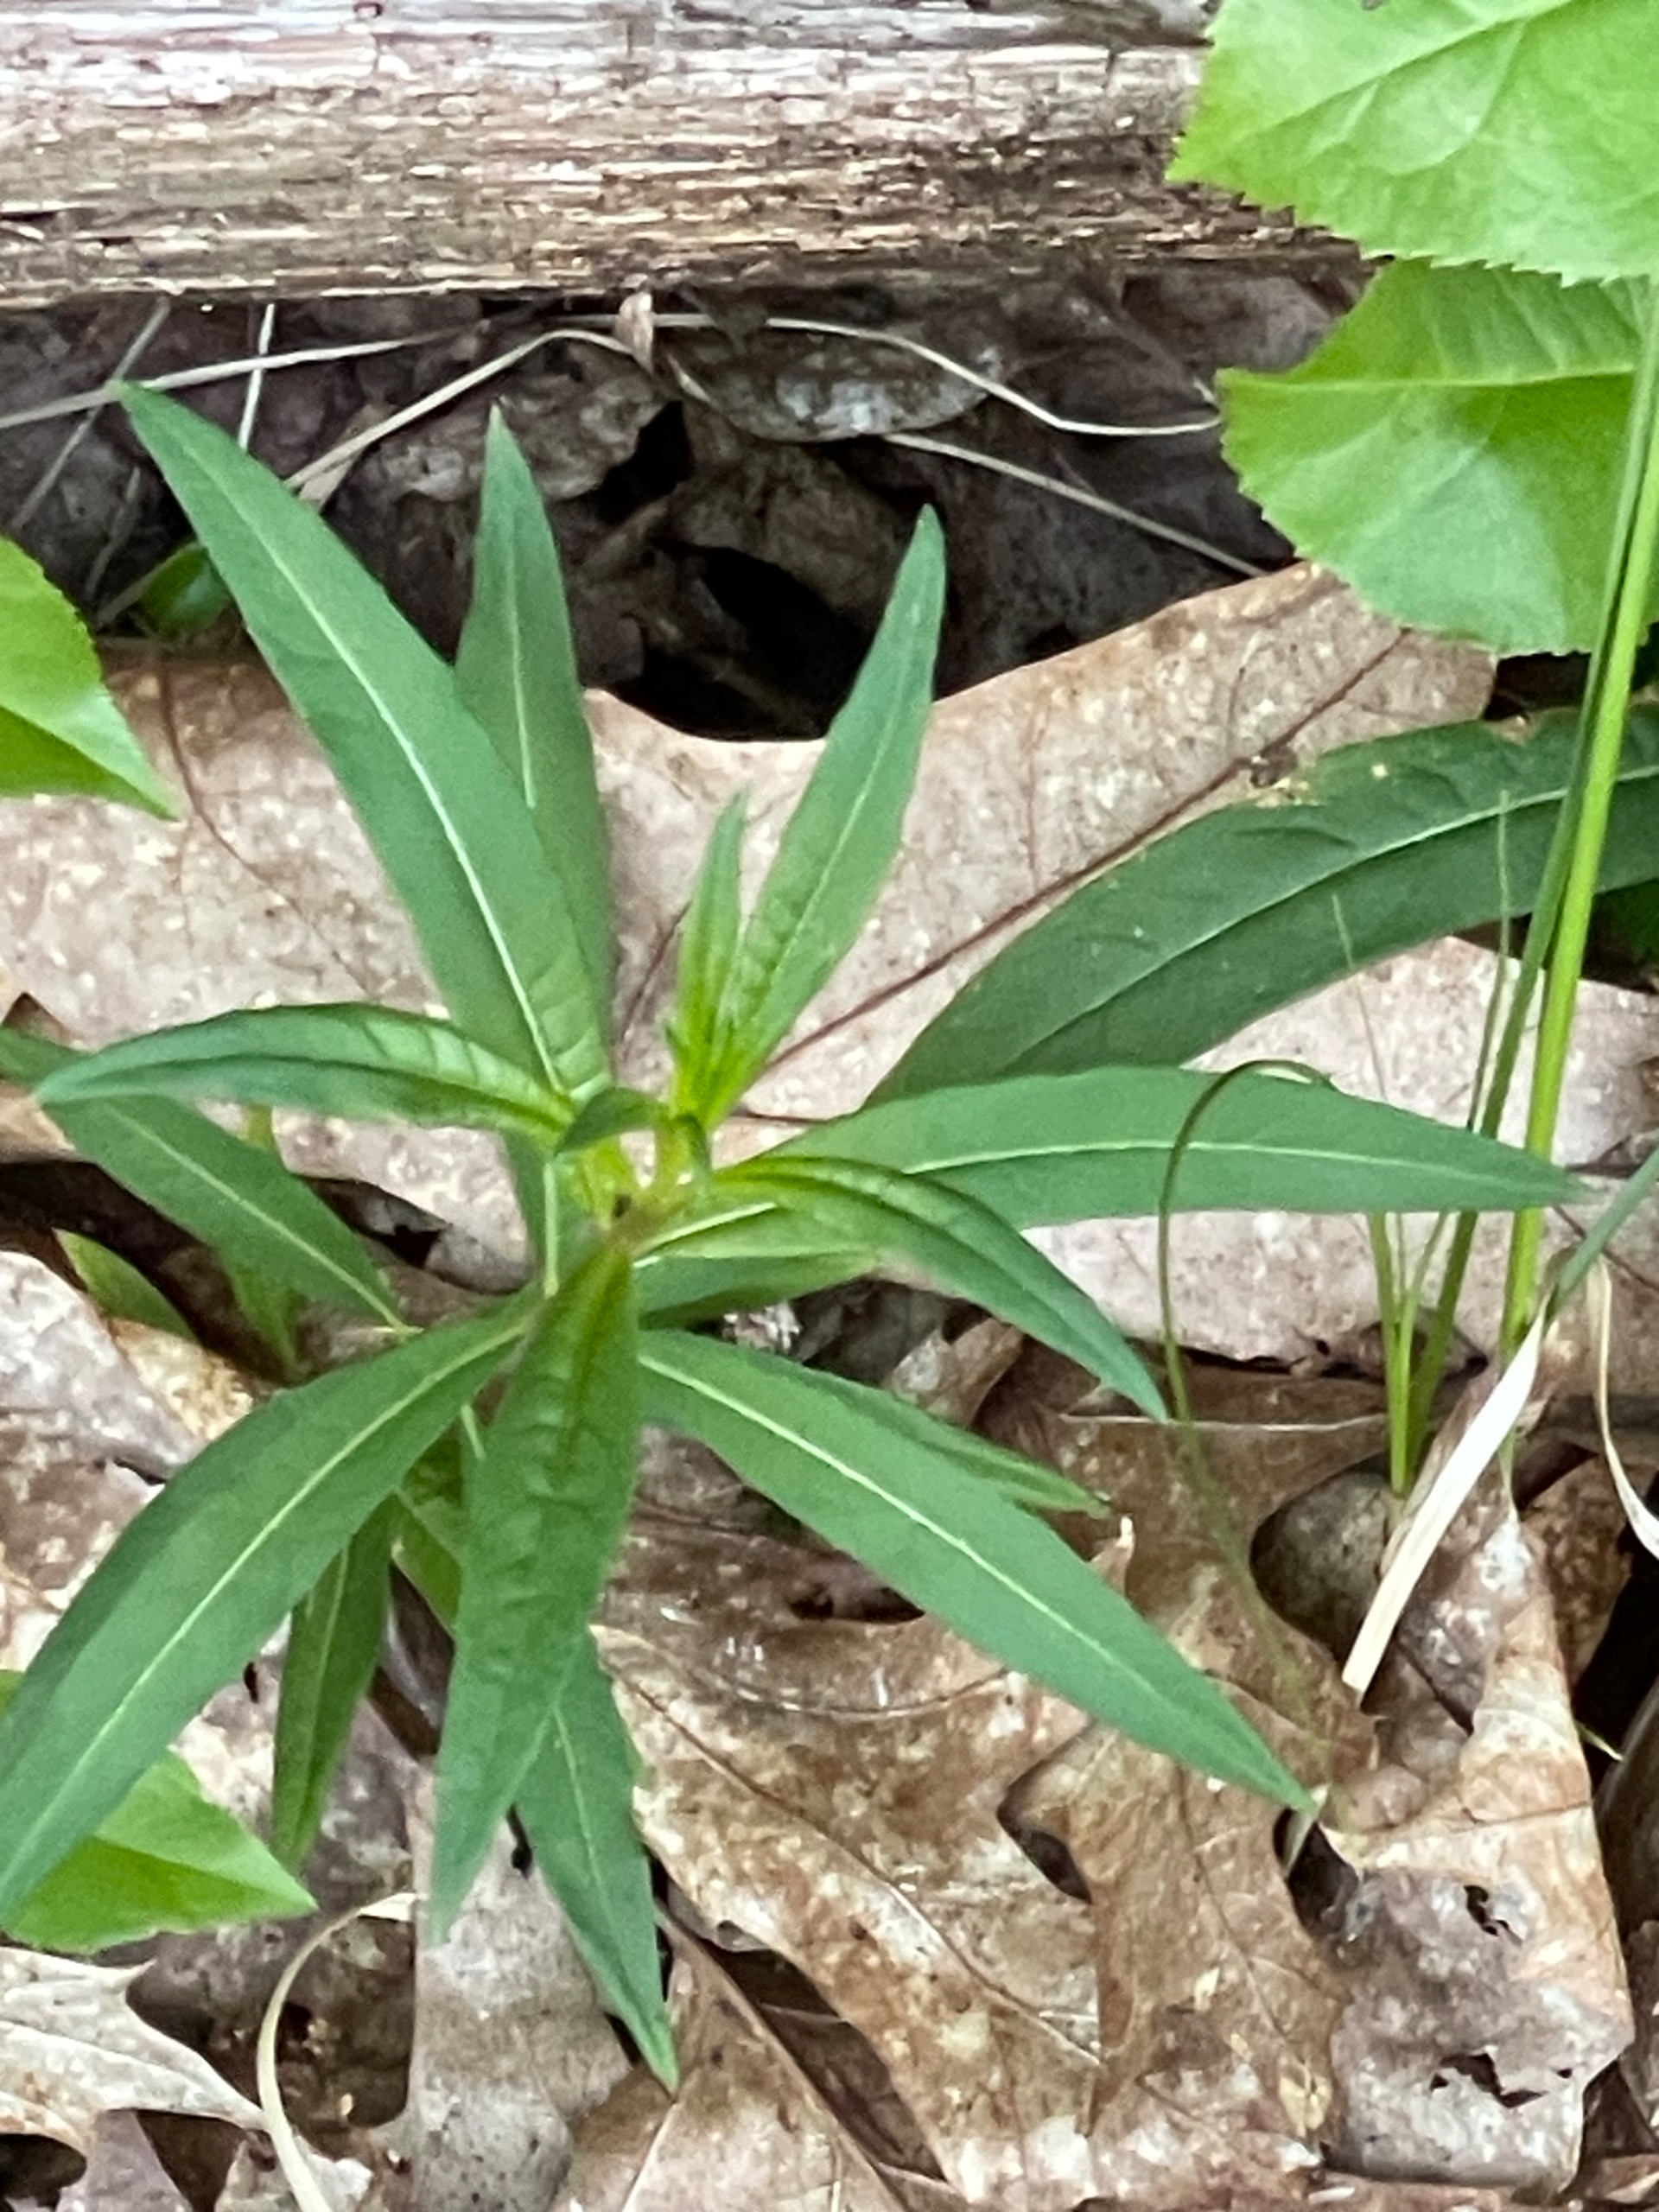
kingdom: Plantae
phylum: Tracheophyta
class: Magnoliopsida
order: Myrtales
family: Onagraceae
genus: Chamaenerion
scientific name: Chamaenerion angustifolium
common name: Gederams
